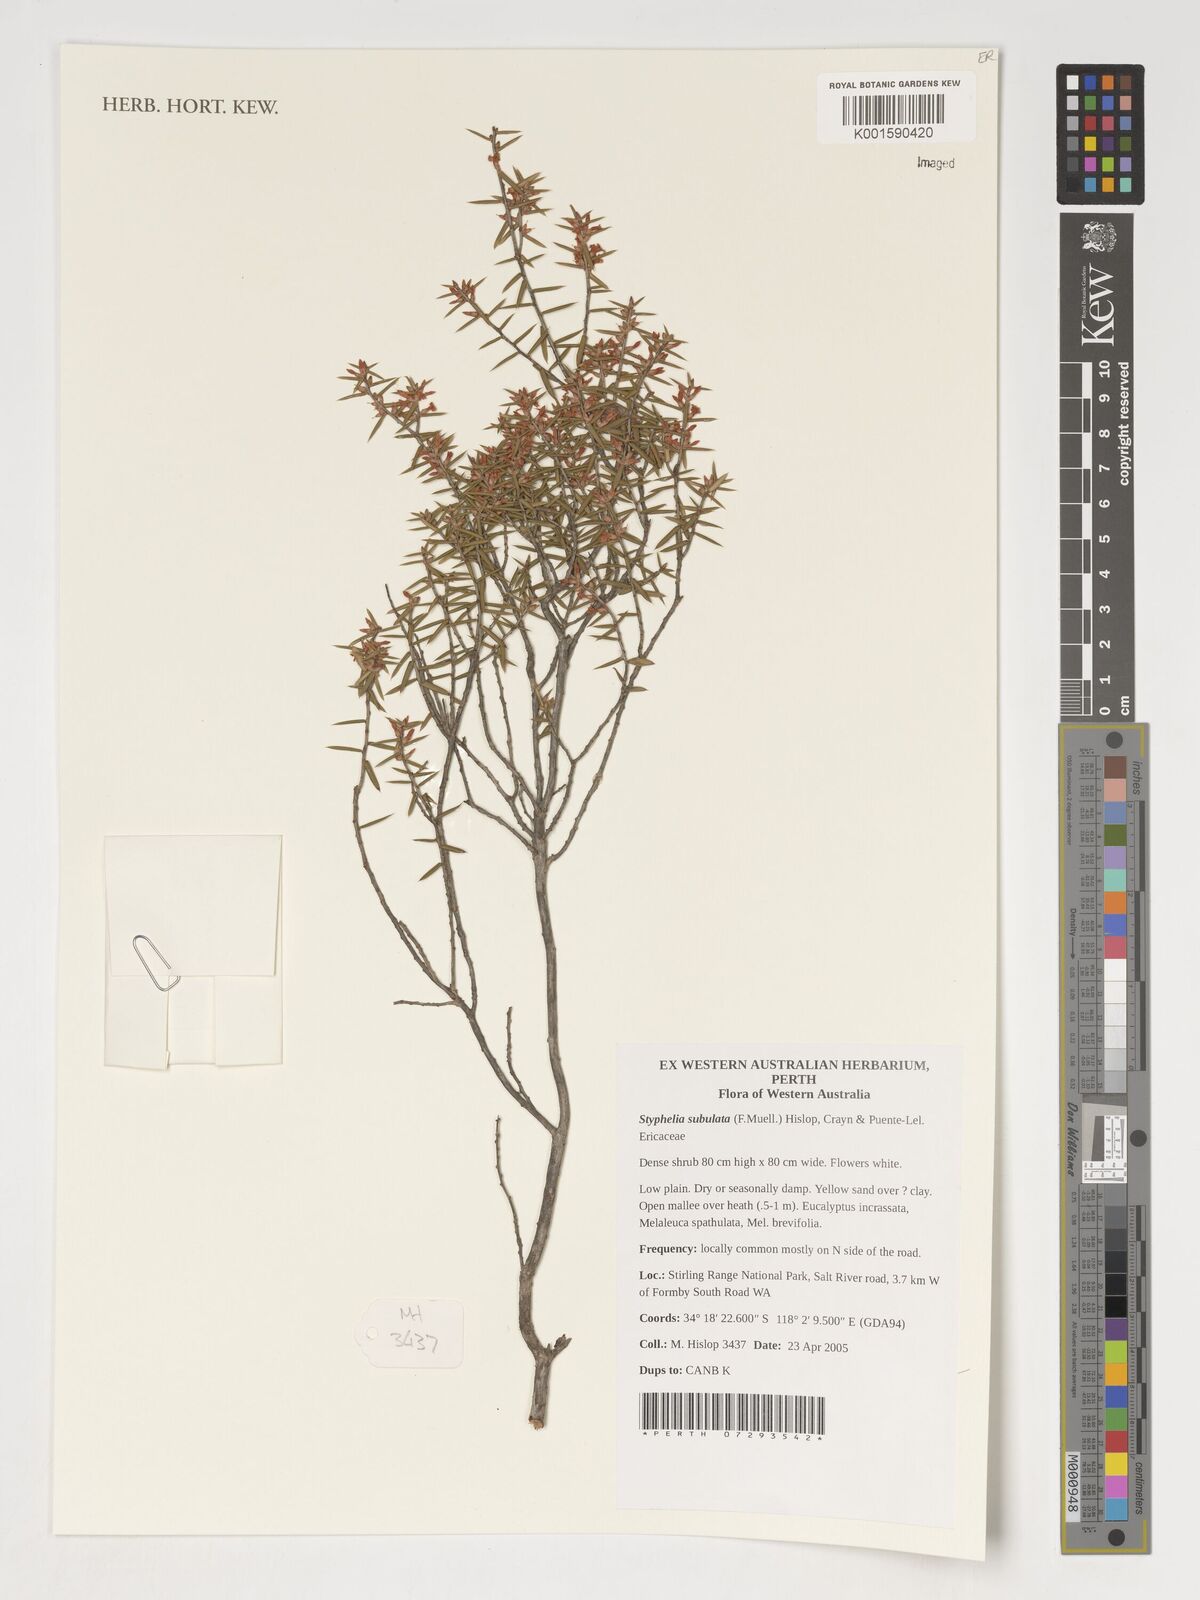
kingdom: Plantae
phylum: Tracheophyta
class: Magnoliopsida
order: Ericales
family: Ericaceae
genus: Styphelia
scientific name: Styphelia
